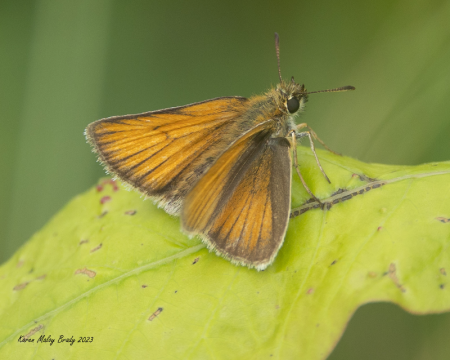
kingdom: Animalia
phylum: Arthropoda
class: Insecta
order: Lepidoptera
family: Hesperiidae
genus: Thymelicus
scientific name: Thymelicus lineola
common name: European Skipper
